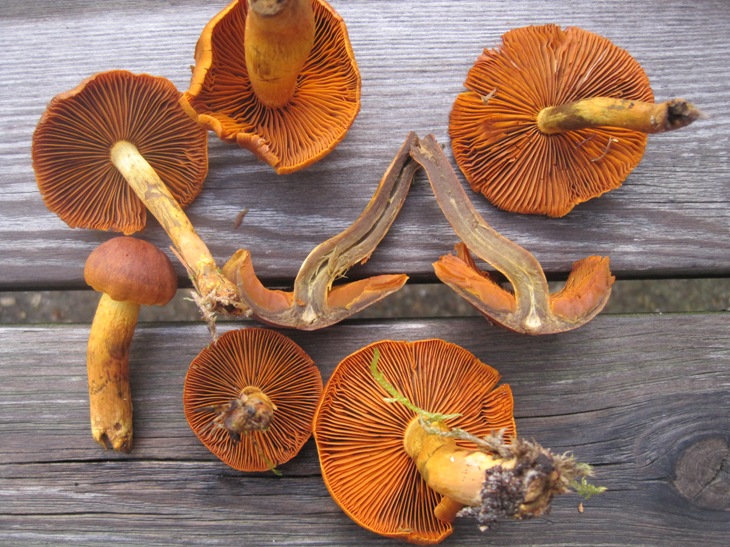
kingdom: Fungi
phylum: Basidiomycota
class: Agaricomycetes
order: Agaricales
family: Cortinariaceae
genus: Cortinarius
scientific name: Cortinarius malicorius
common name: grønkødet slørhat
